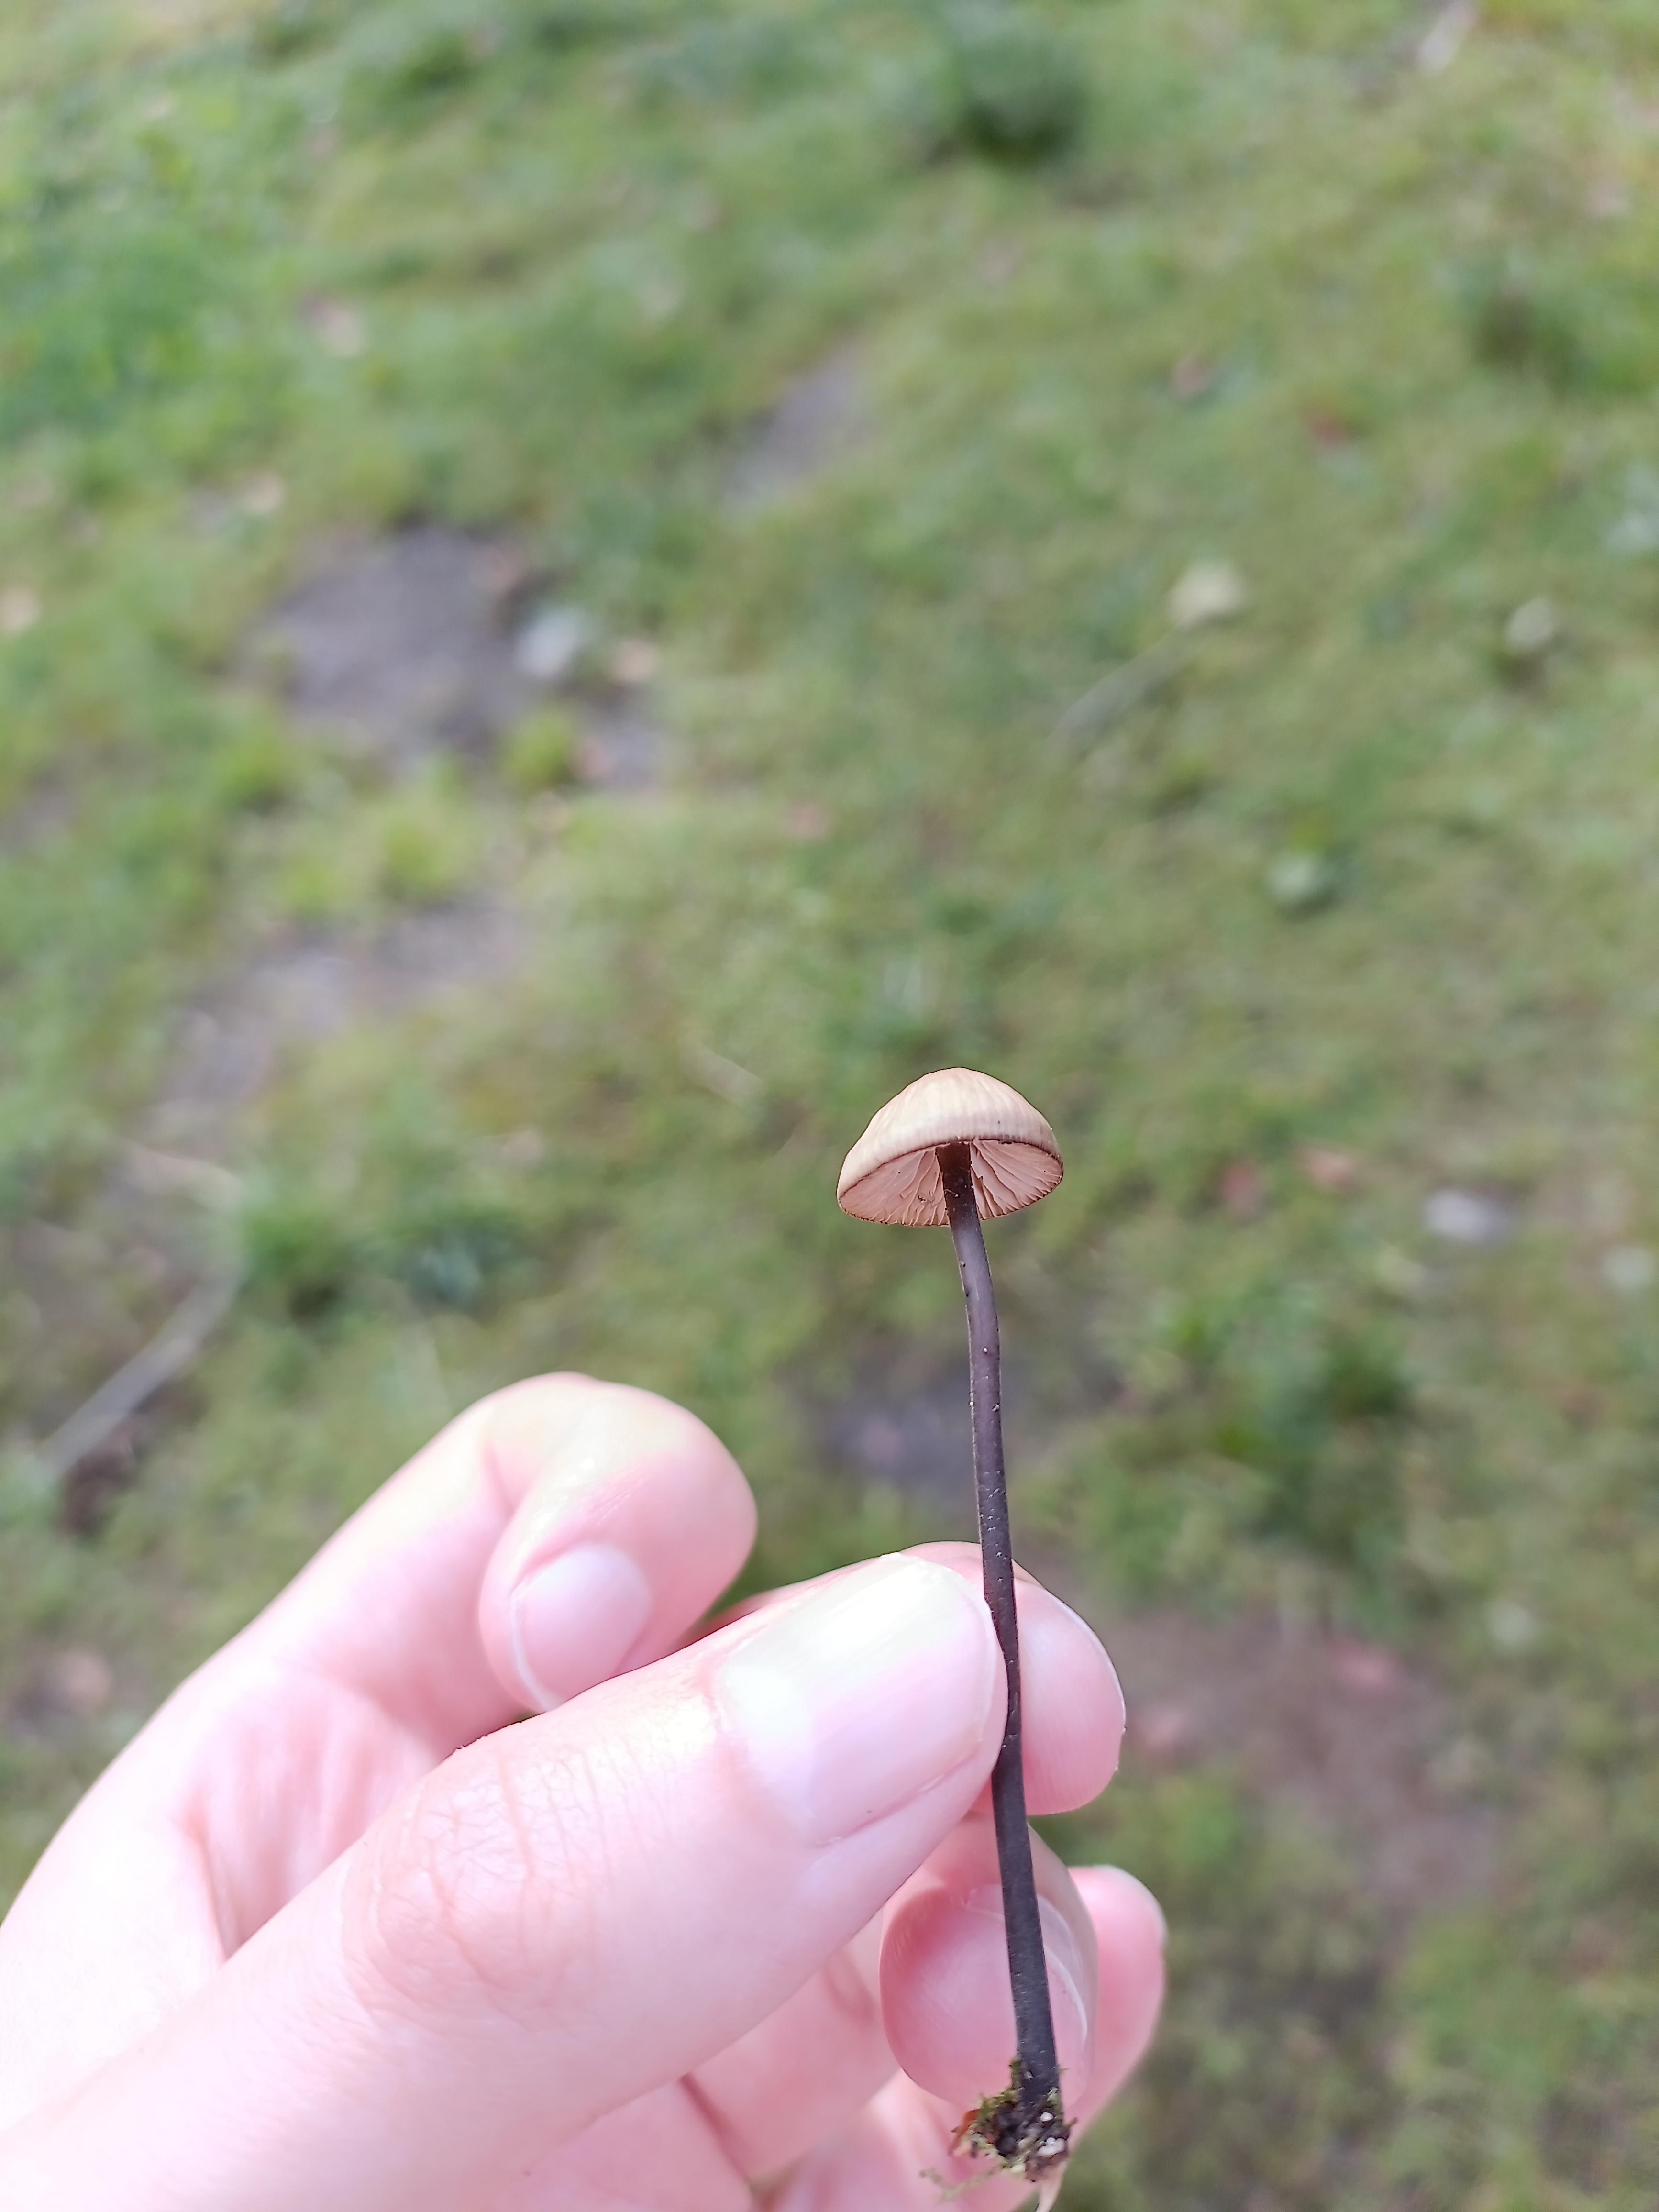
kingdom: Fungi
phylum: Basidiomycota
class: Agaricomycetes
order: Agaricales
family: Omphalotaceae
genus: Mycetinis
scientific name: Mycetinis alliaceus
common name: stor løghat
